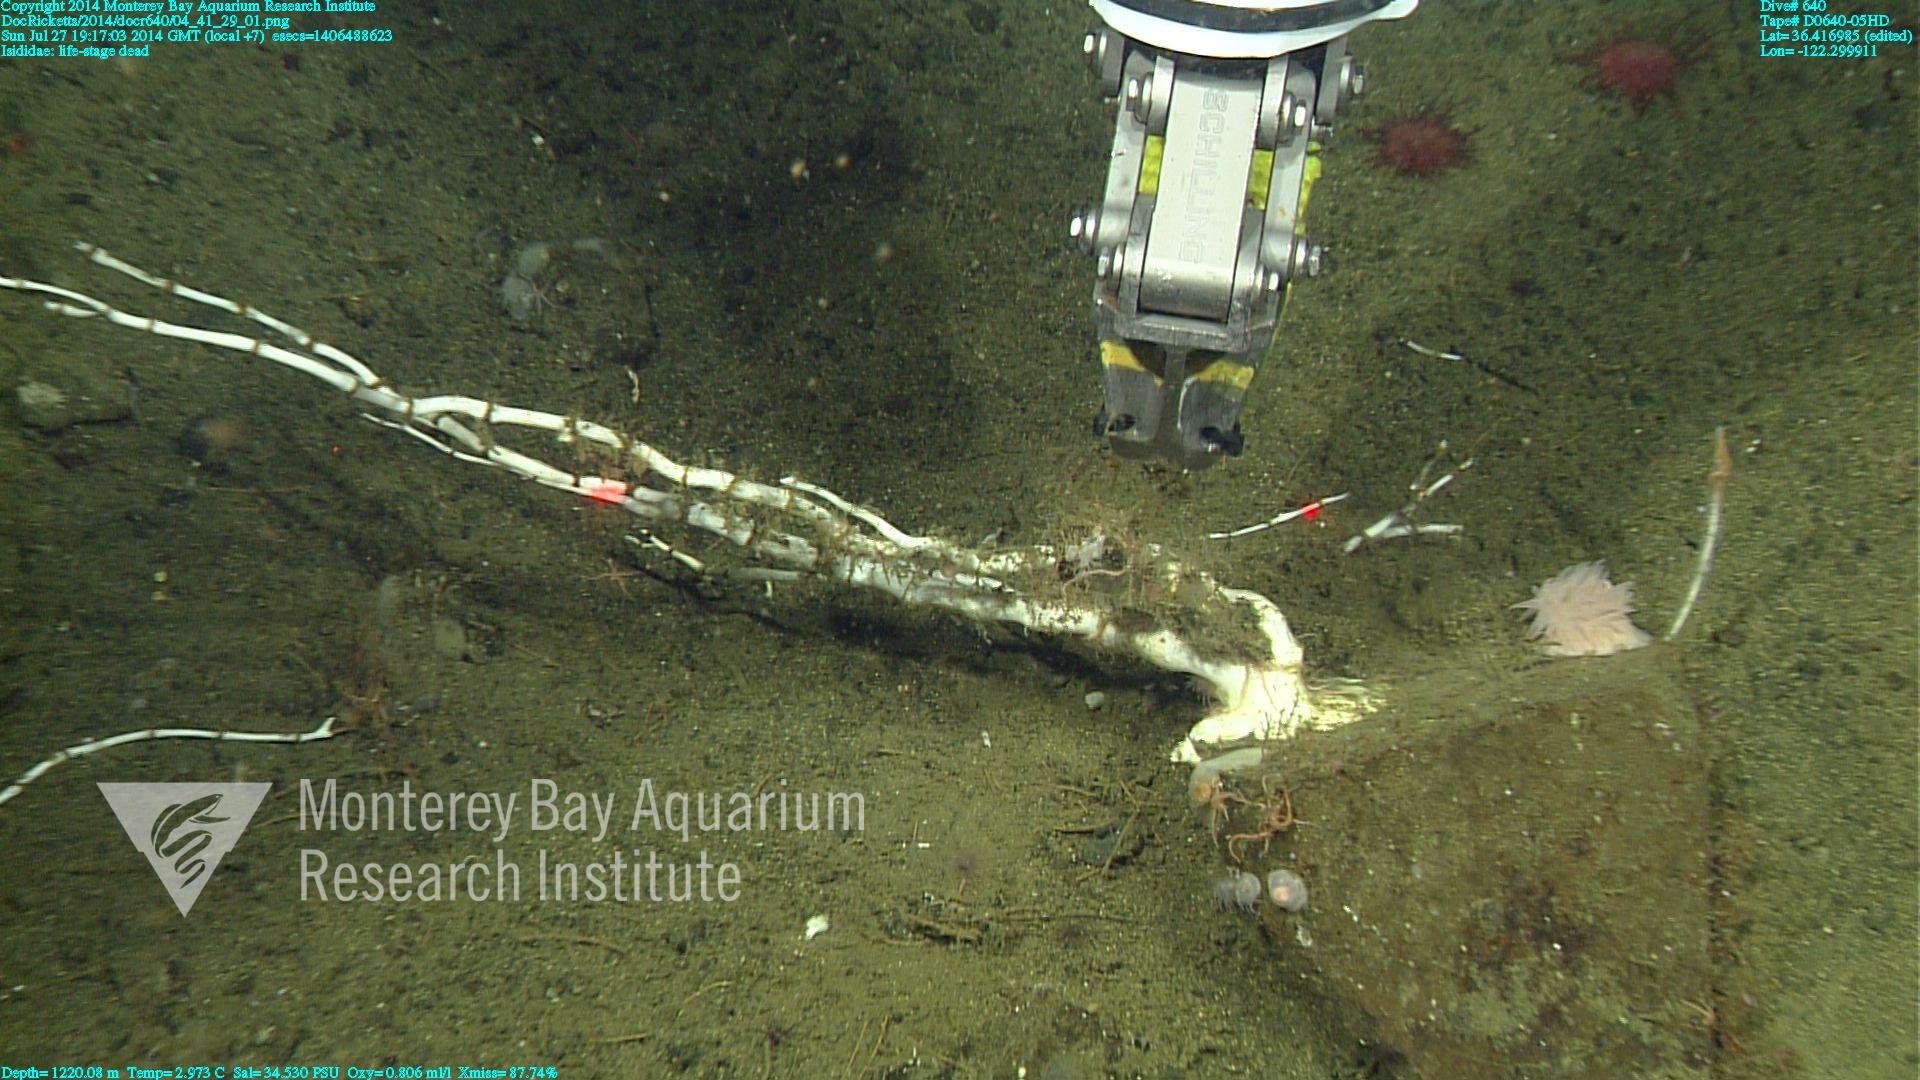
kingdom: Animalia
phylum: Cnidaria
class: Anthozoa
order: Scleralcyonacea
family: Keratoisididae
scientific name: Keratoisididae
